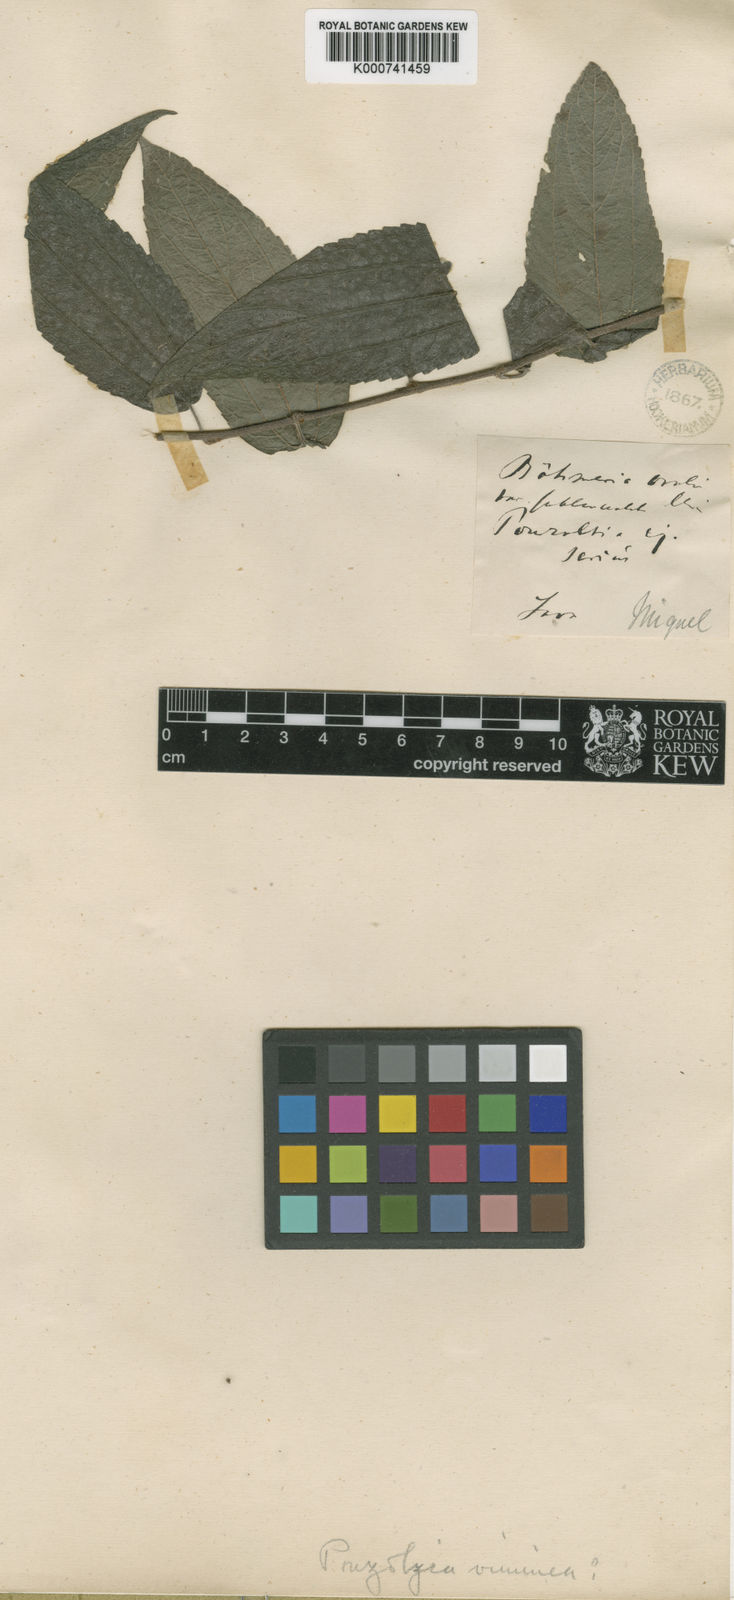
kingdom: Plantae
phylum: Tracheophyta
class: Magnoliopsida
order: Rosales
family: Urticaceae
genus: Pouzolzia
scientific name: Pouzolzia sanguinea
